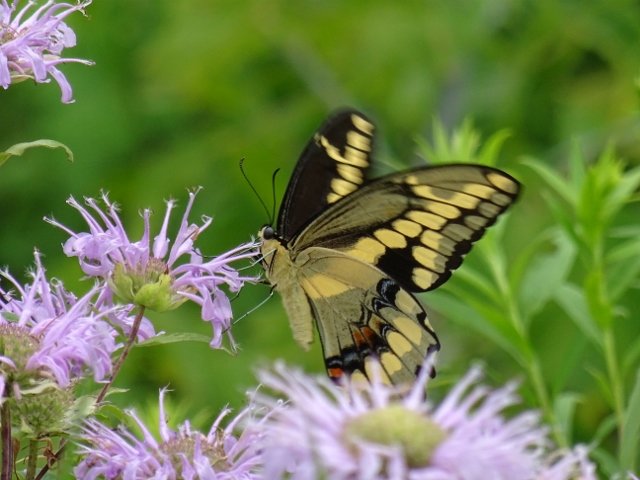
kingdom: Animalia
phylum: Arthropoda
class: Insecta
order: Lepidoptera
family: Papilionidae
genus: Papilio
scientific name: Papilio cresphontes
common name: Eastern Giant Swallowtail
